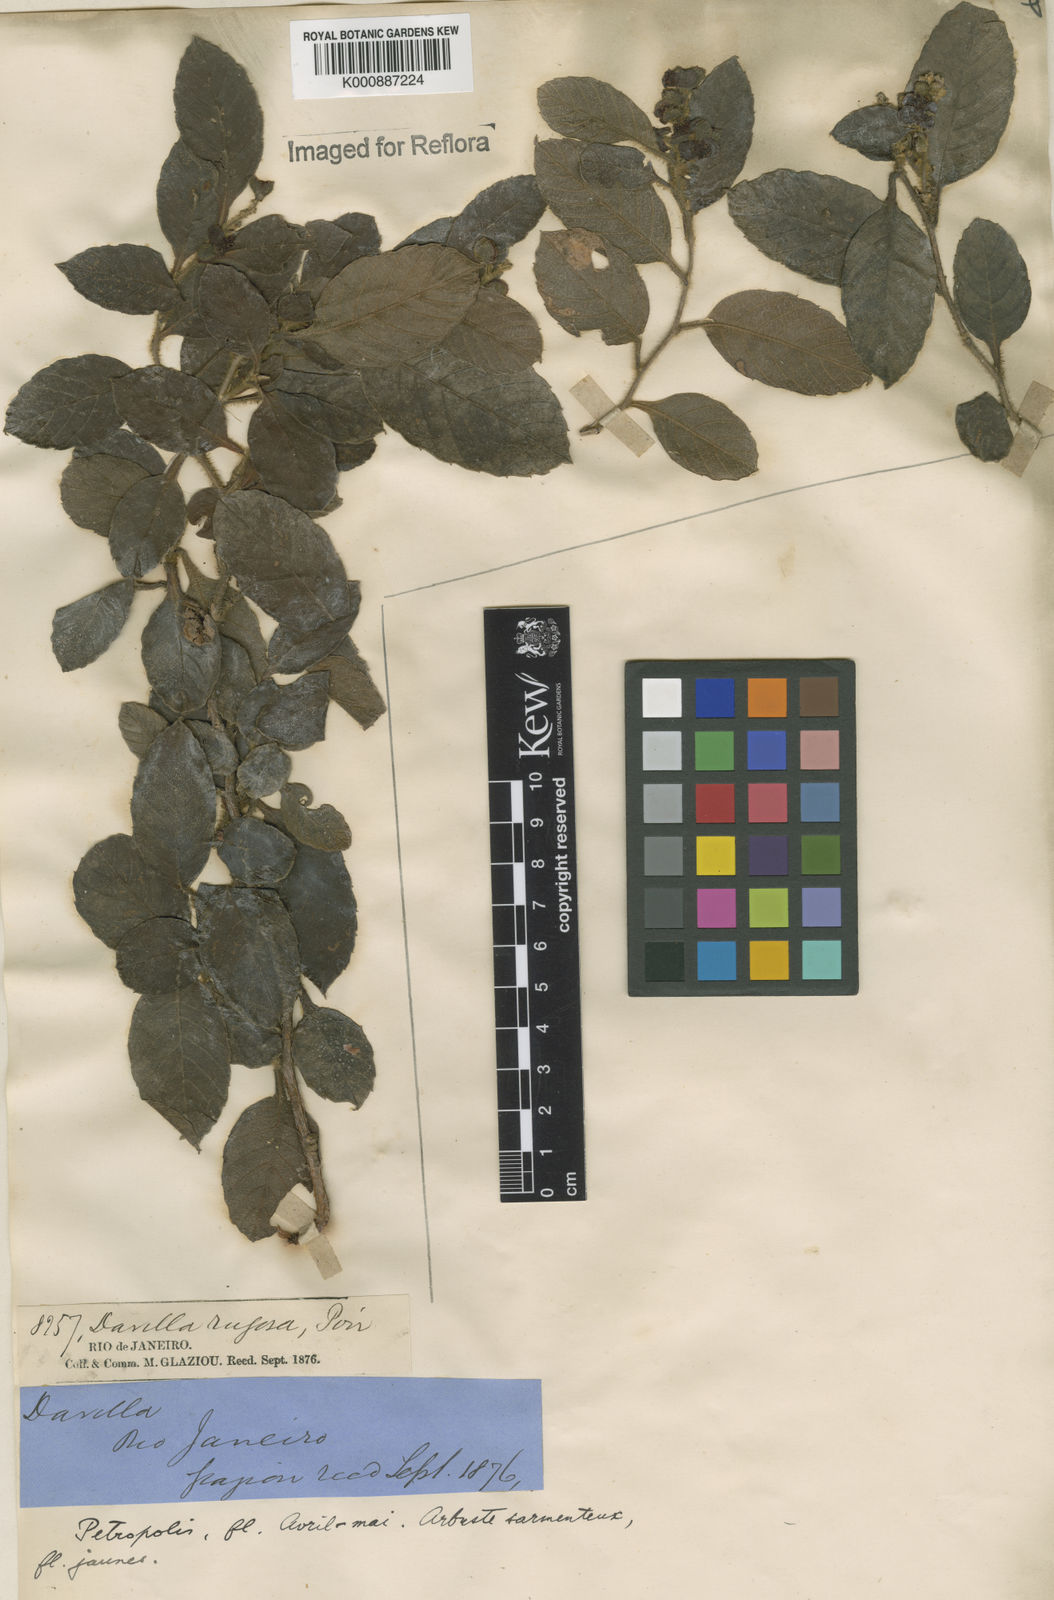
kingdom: Plantae
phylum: Tracheophyta
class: Magnoliopsida
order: Dilleniales
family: Dilleniaceae
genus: Davilla
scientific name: Davilla rugosa
